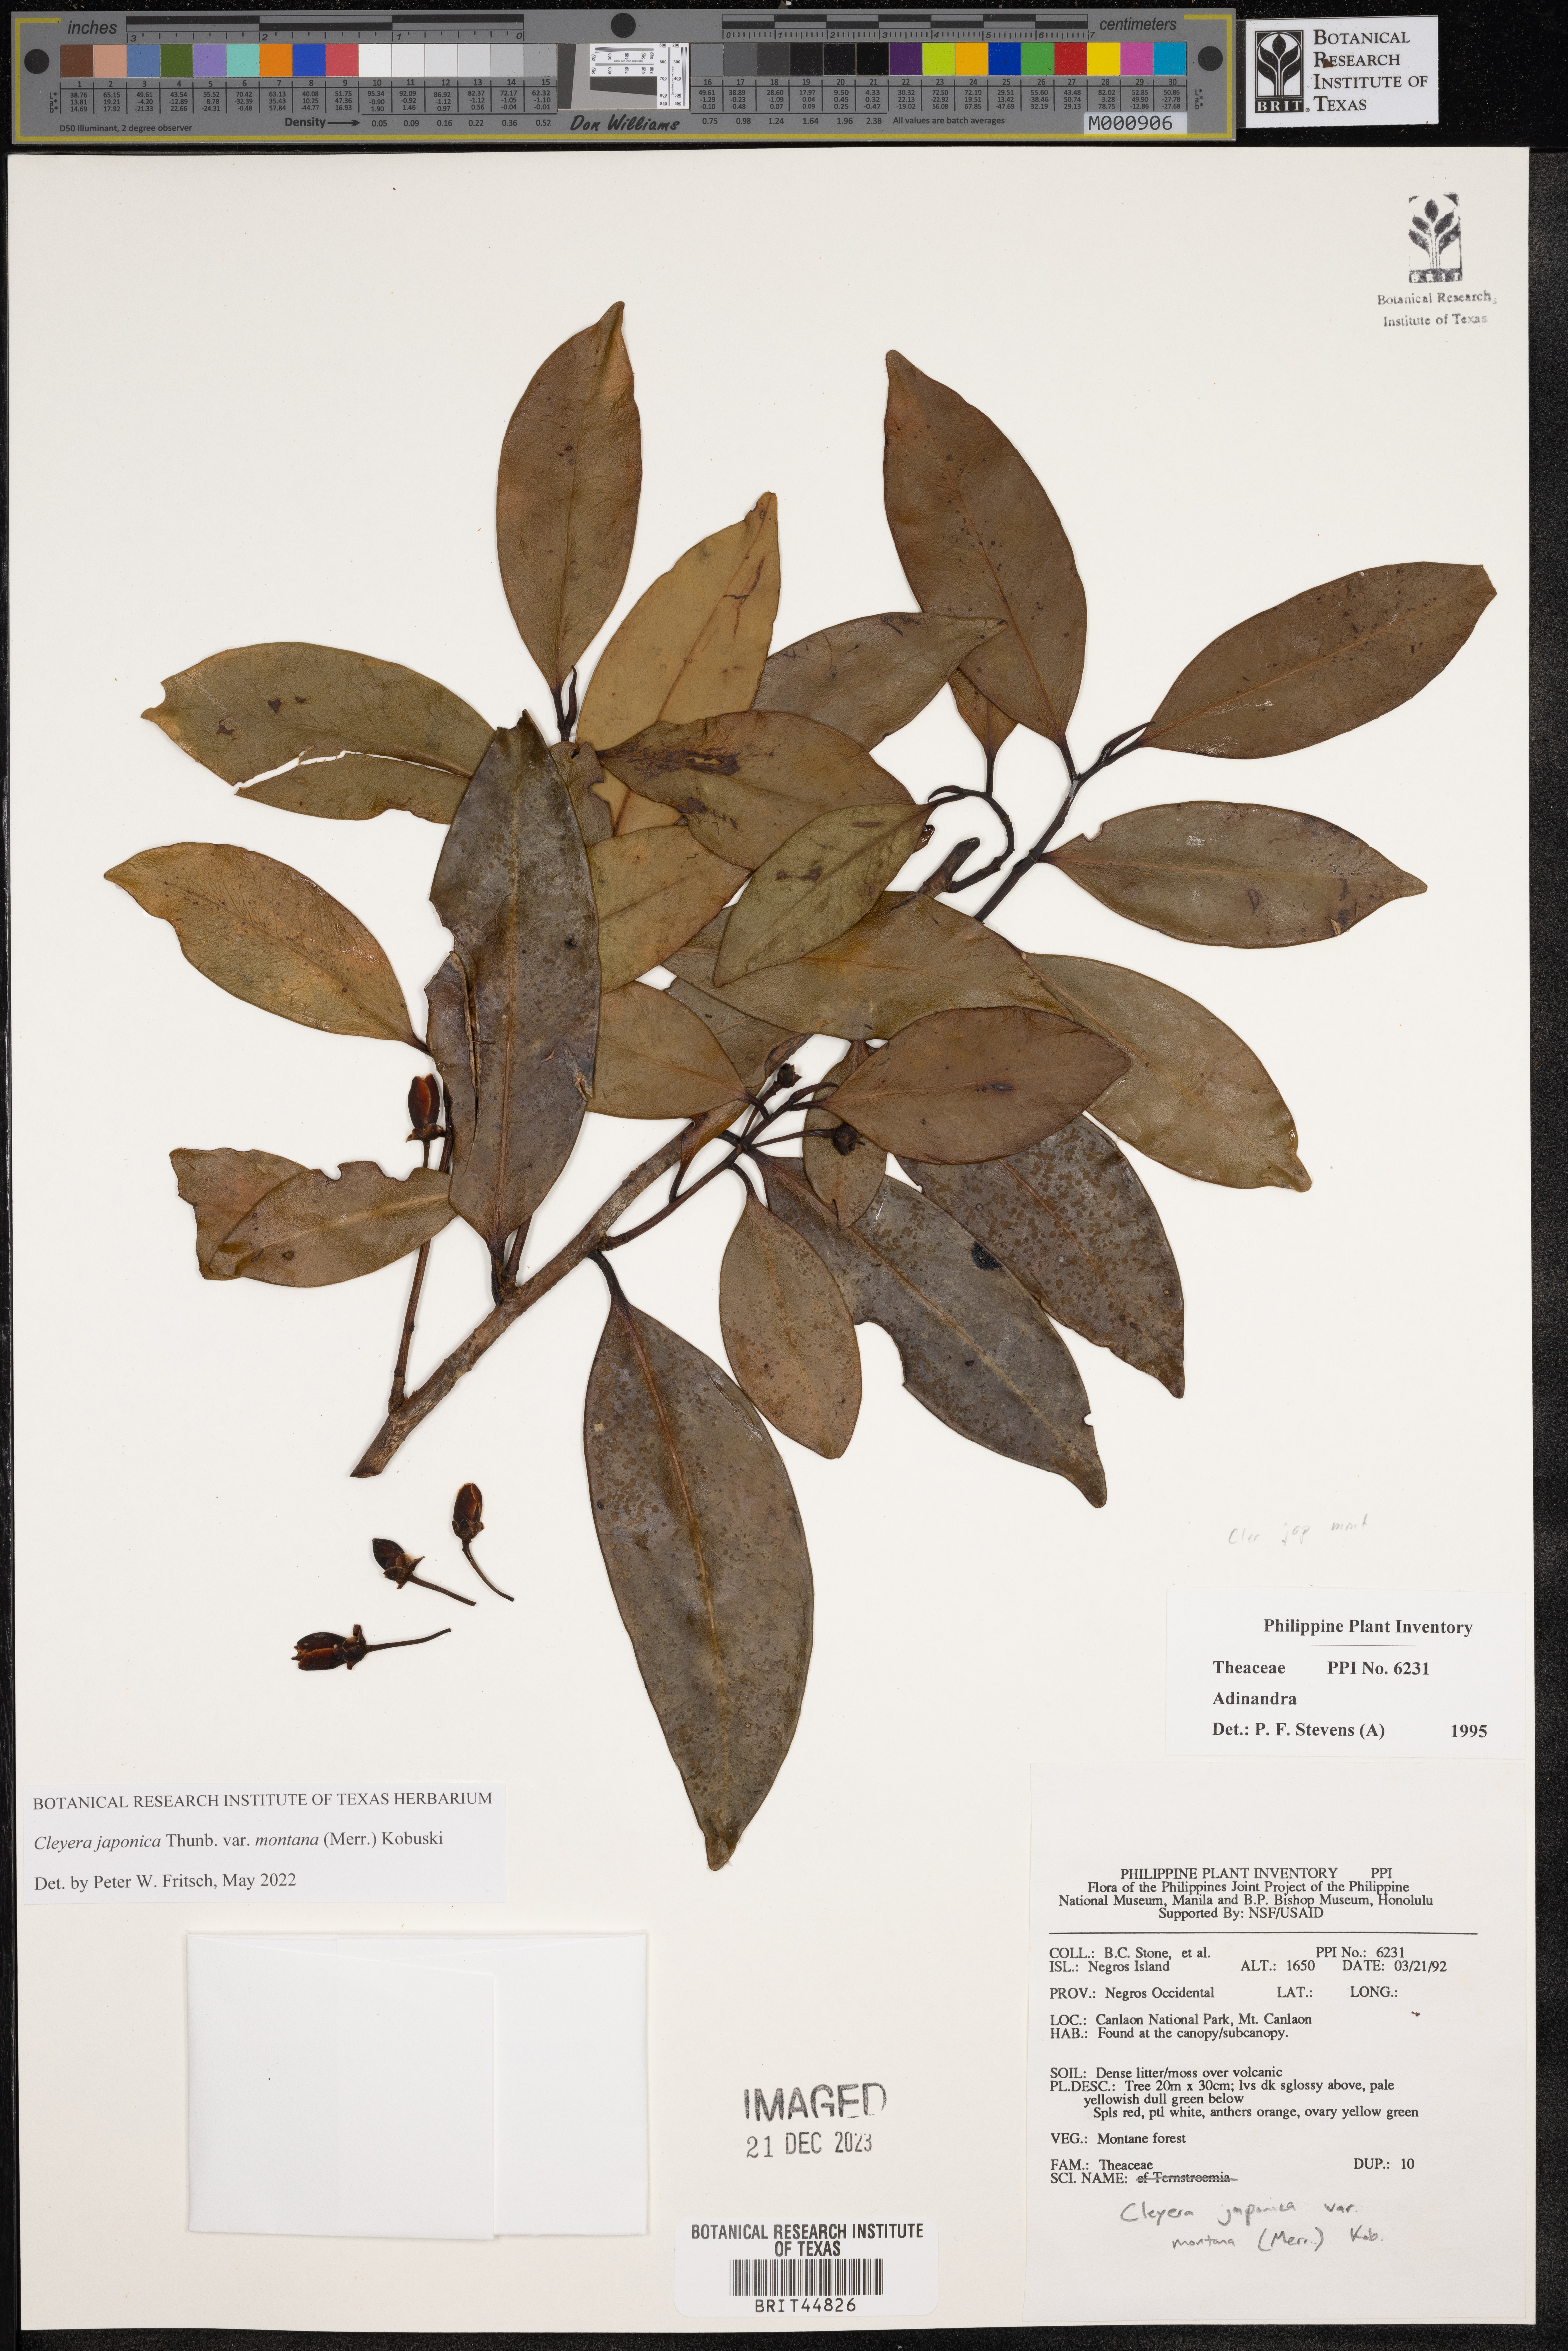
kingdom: Plantae
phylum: Tracheophyta
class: Magnoliopsida
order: Ericales
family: Pentaphylacaceae
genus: Adinandra
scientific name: Adinandra
